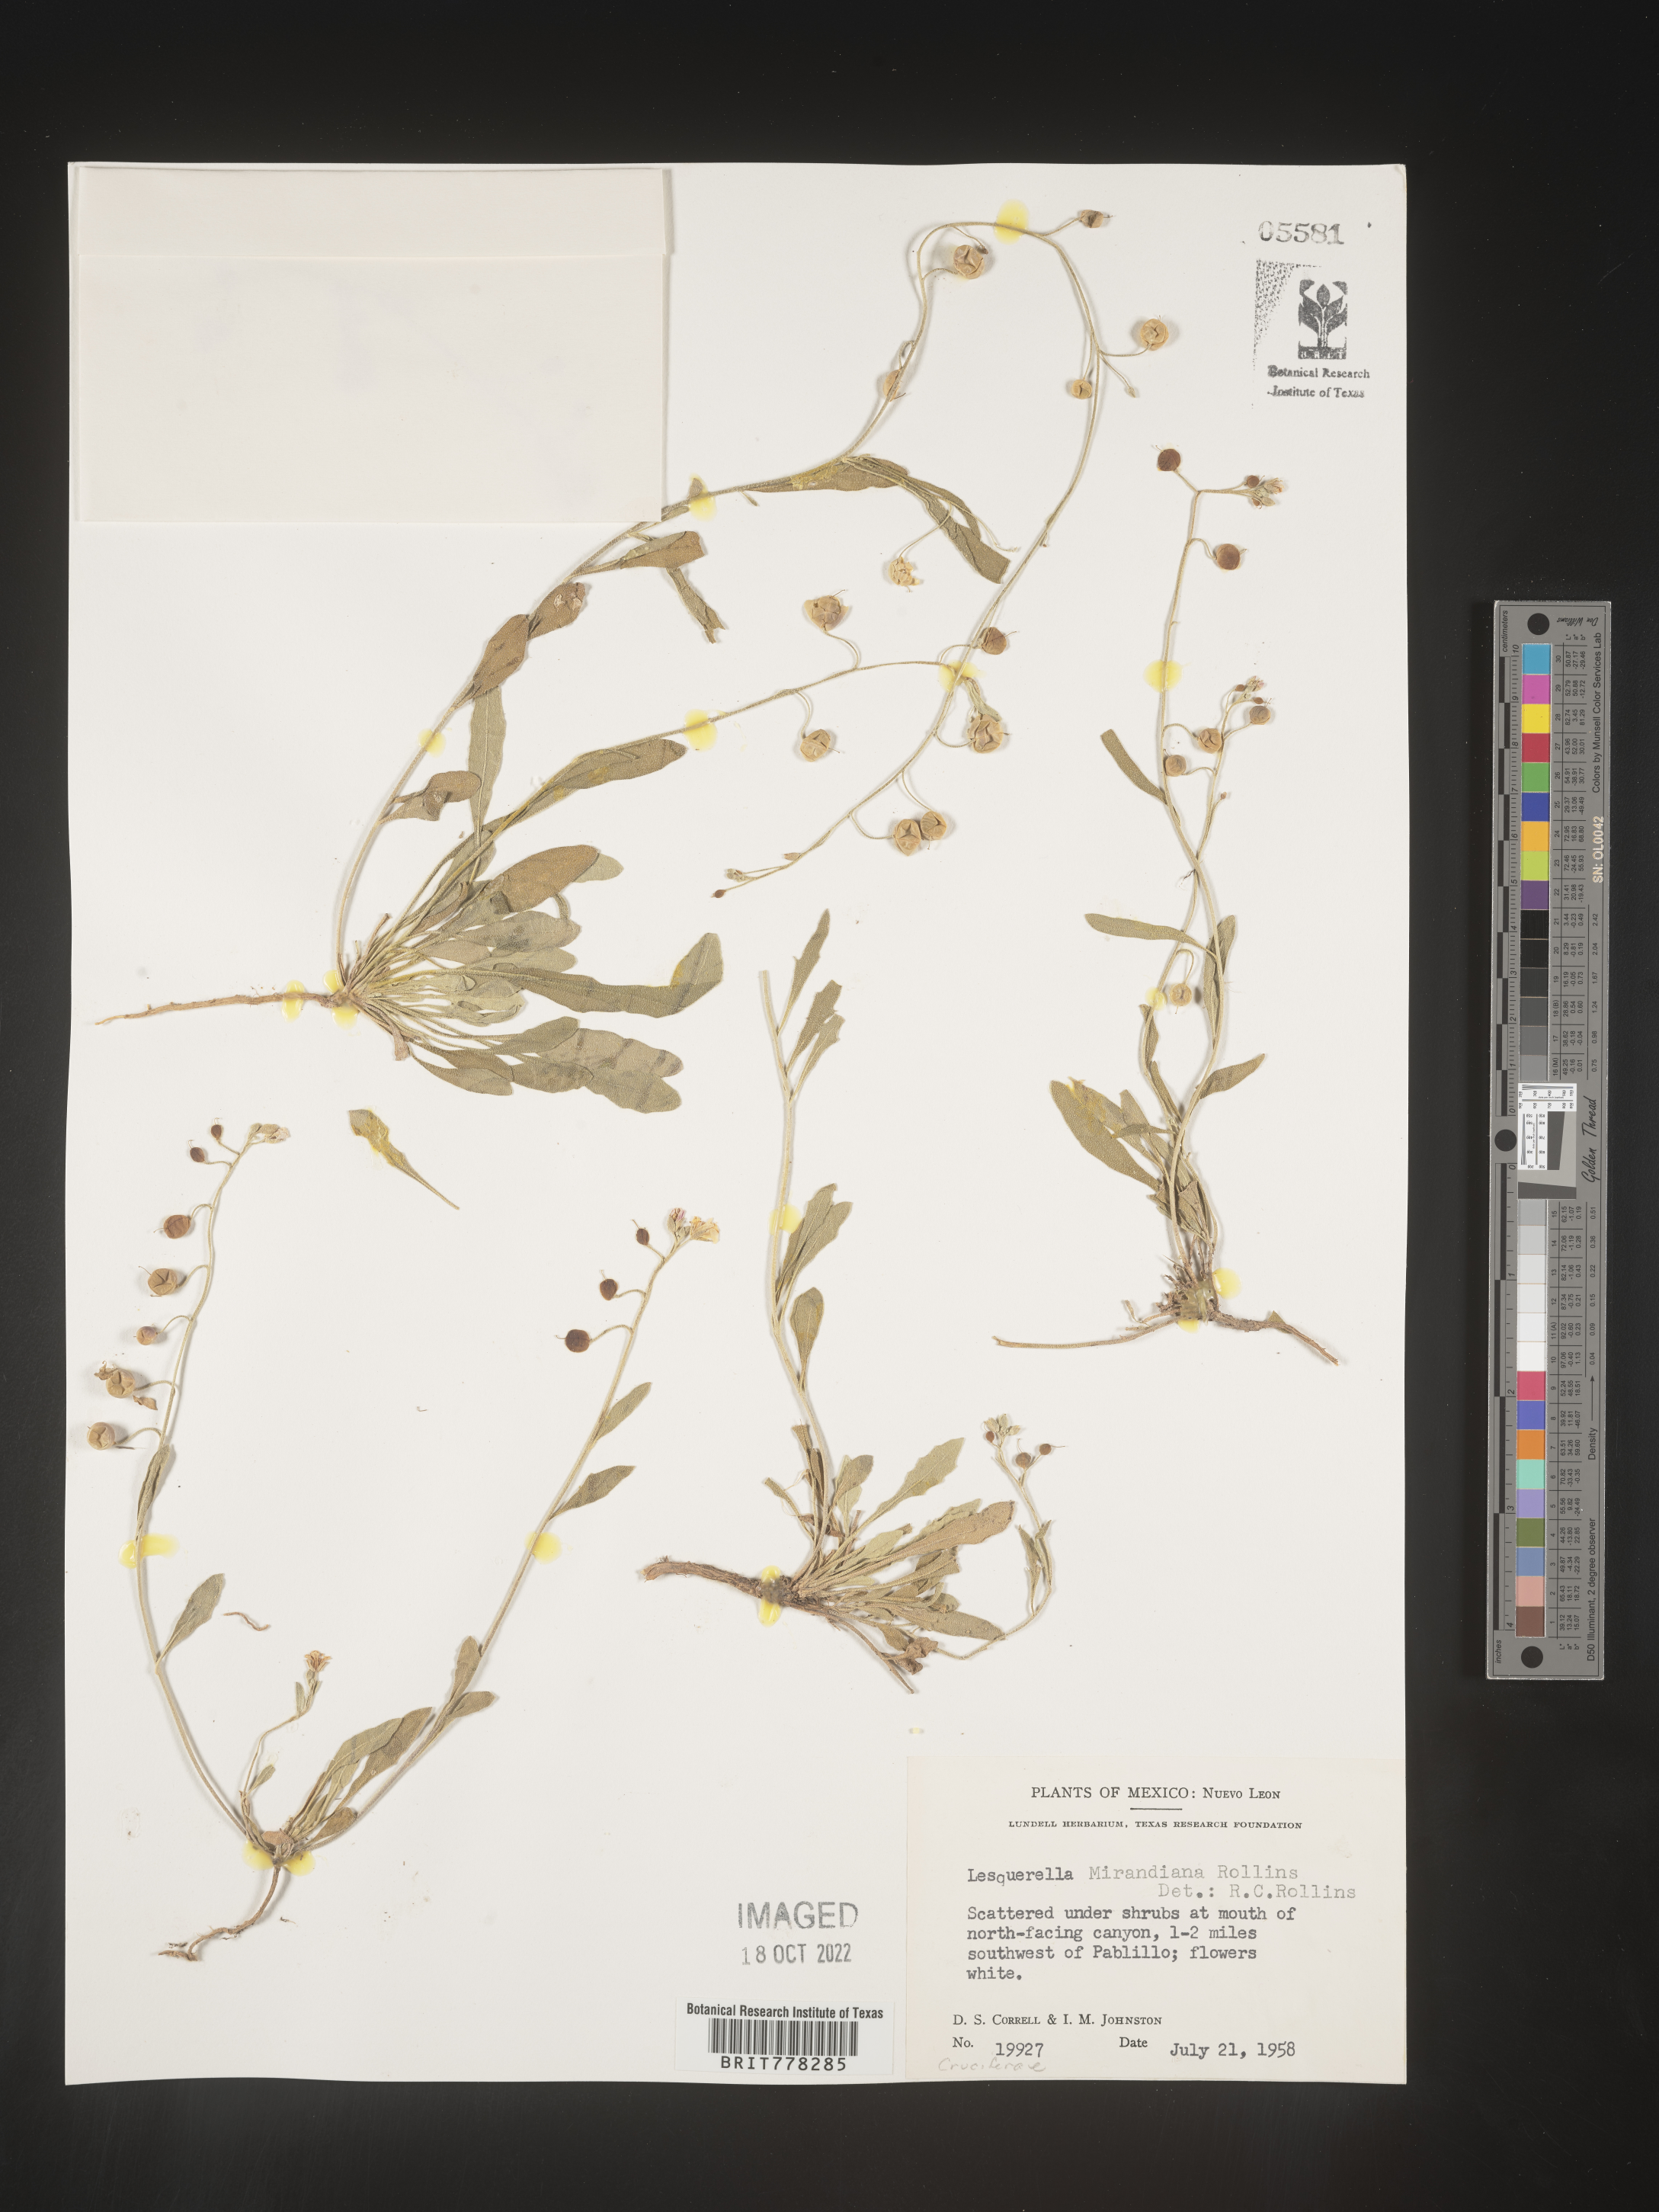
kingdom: Chromista
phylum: Cercozoa
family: Psammonobiotidae
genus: Lesquerella
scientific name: Lesquerella
